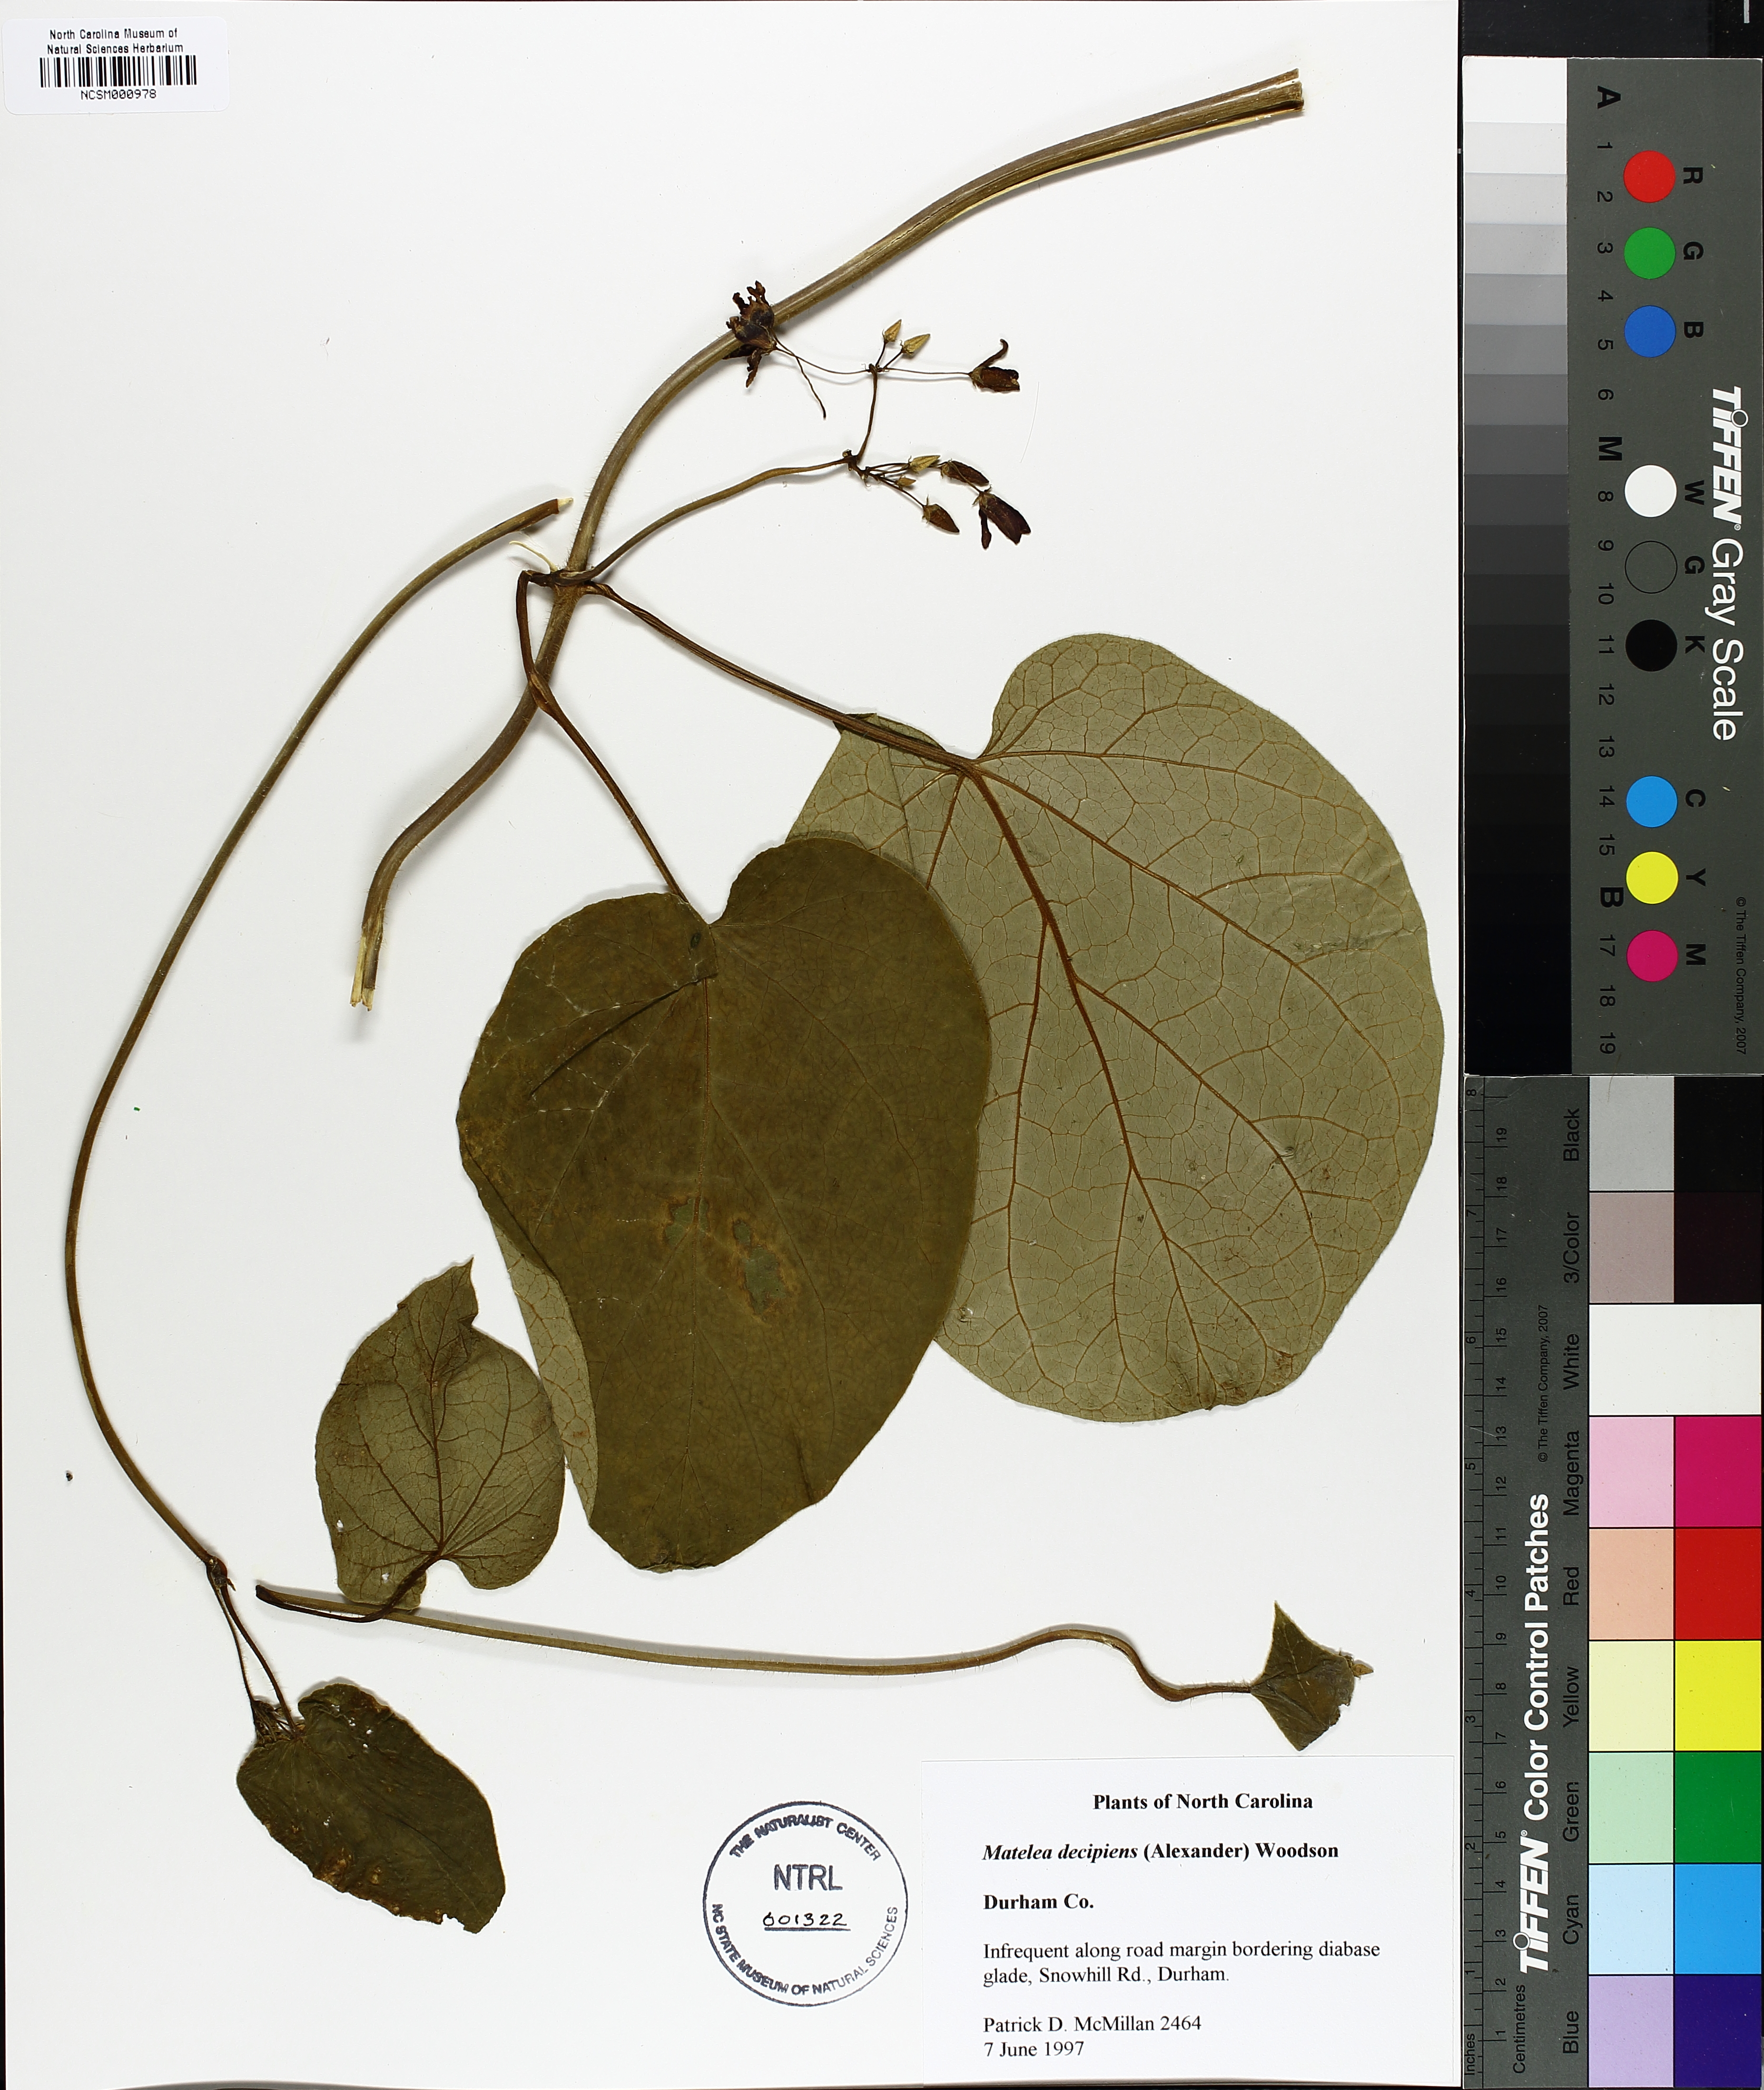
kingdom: Plantae
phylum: Tracheophyta
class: Magnoliopsida
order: Gentianales
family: Apocynaceae
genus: Matelea
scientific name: Matelea decipiens
